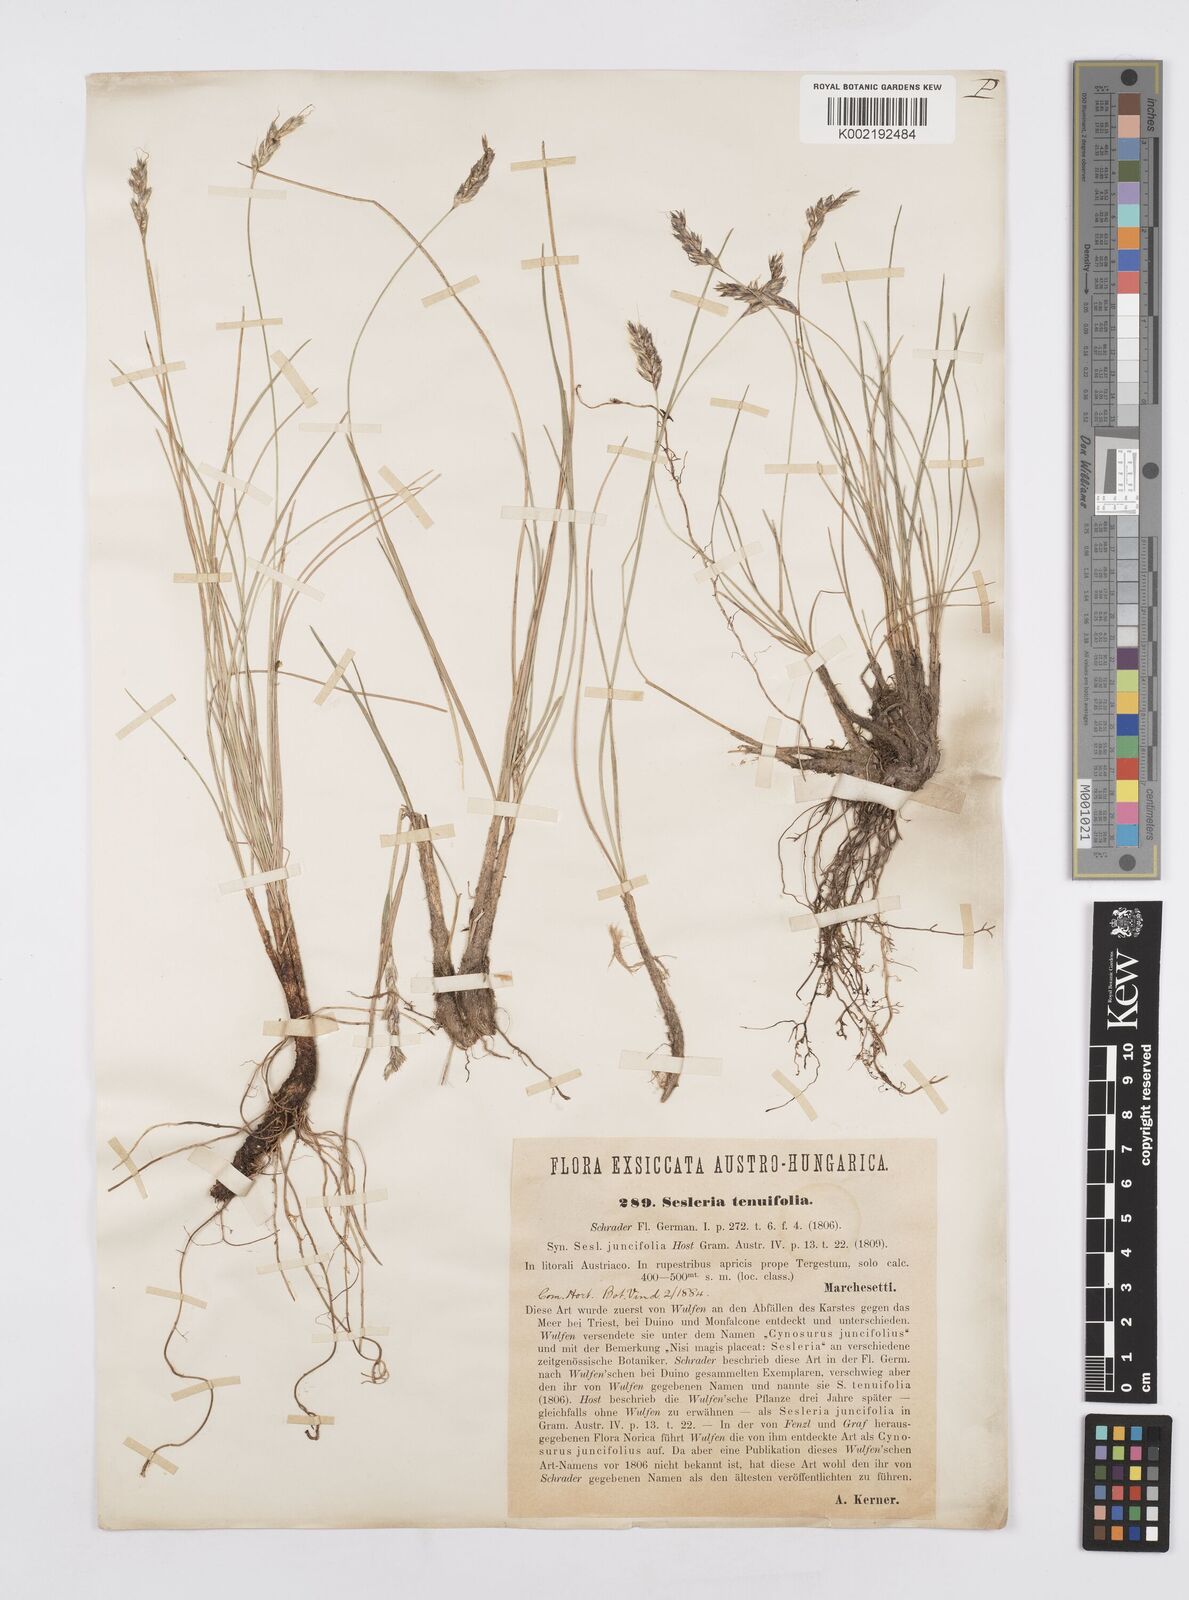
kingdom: Plantae
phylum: Tracheophyta
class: Liliopsida
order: Poales
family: Poaceae
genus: Sesleria
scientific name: Sesleria juncifolia
